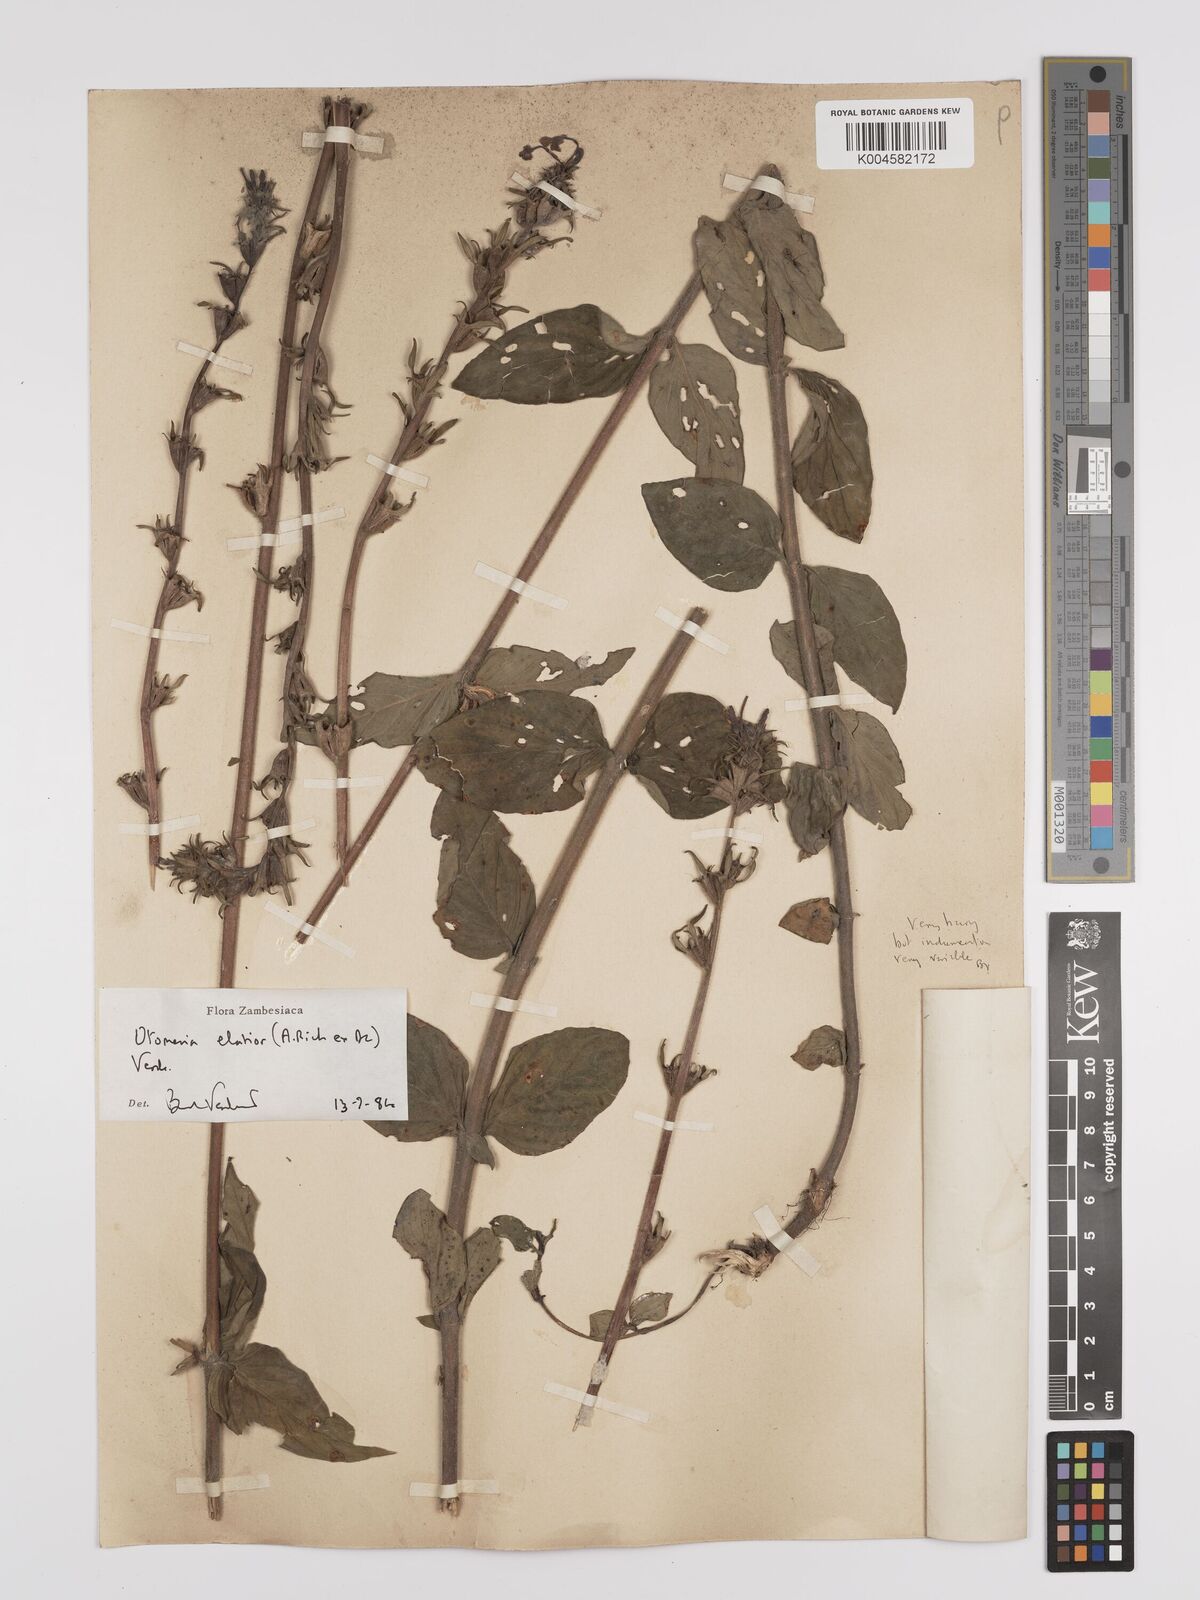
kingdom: Plantae
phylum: Tracheophyta
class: Magnoliopsida
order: Gentianales
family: Rubiaceae
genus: Otomeria
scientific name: Otomeria elatior
